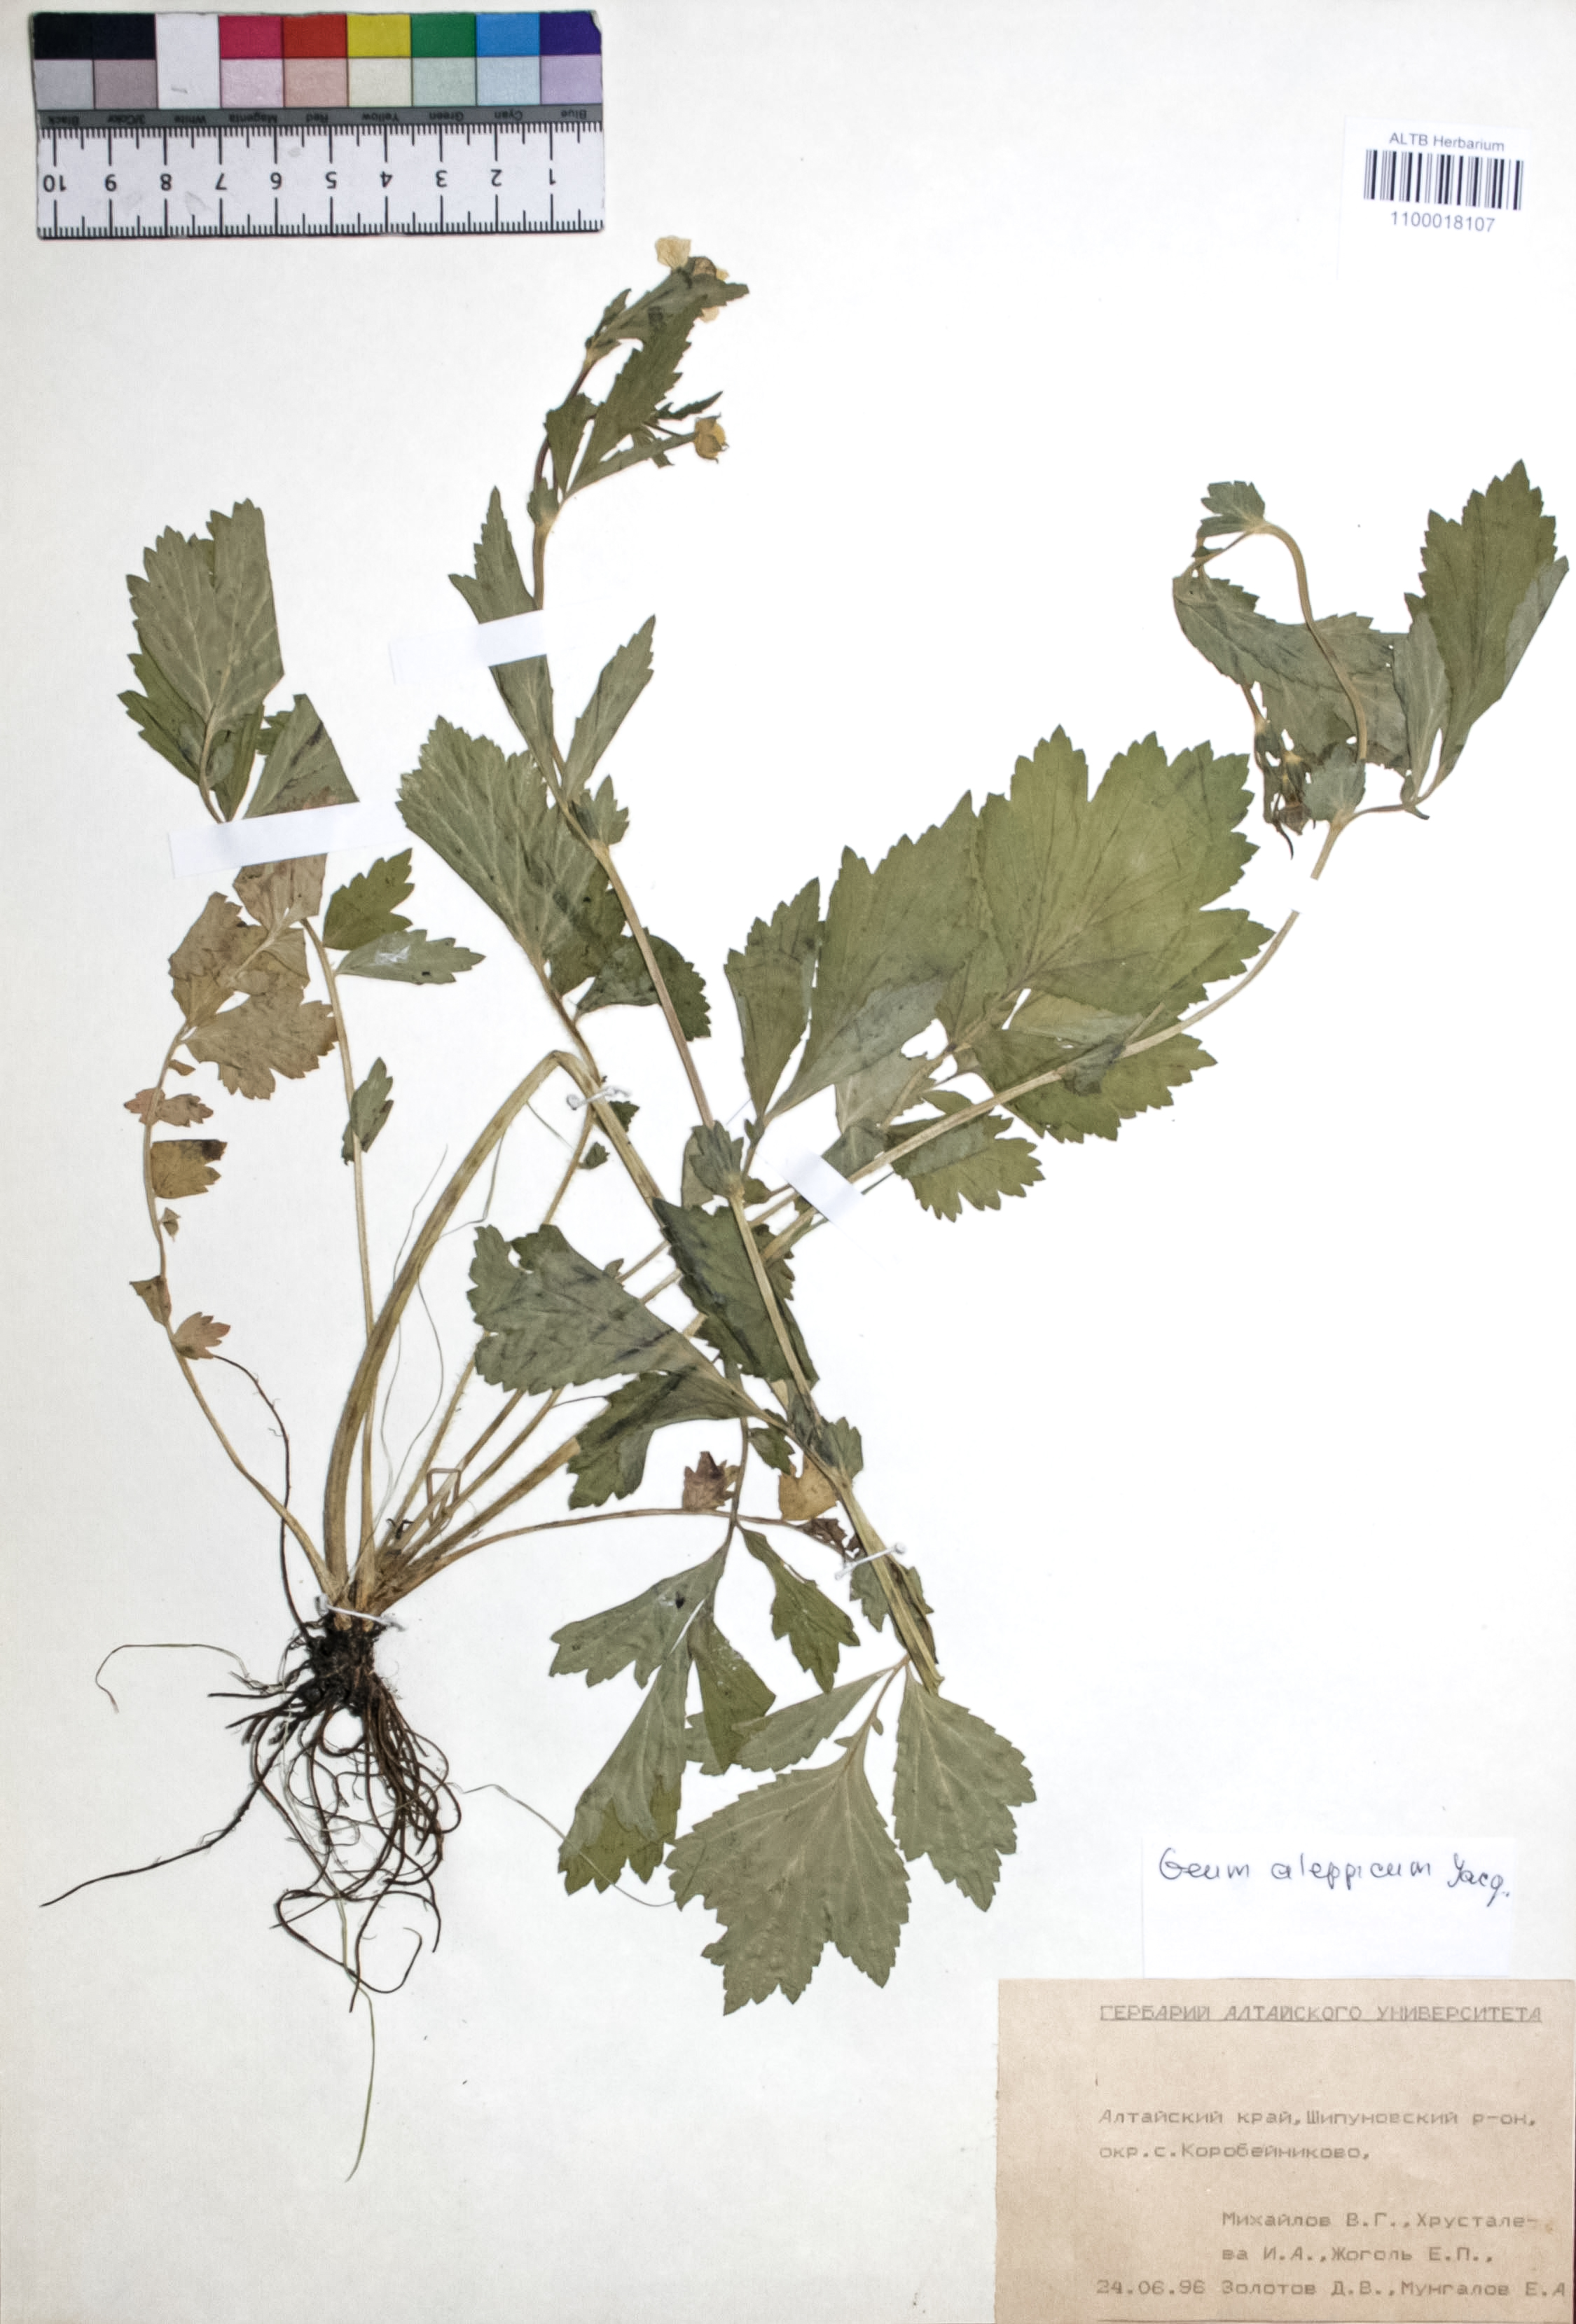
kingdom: Plantae
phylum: Tracheophyta
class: Magnoliopsida
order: Rosales
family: Rosaceae
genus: Geum
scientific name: Geum aleppicum
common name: Yellow avens
